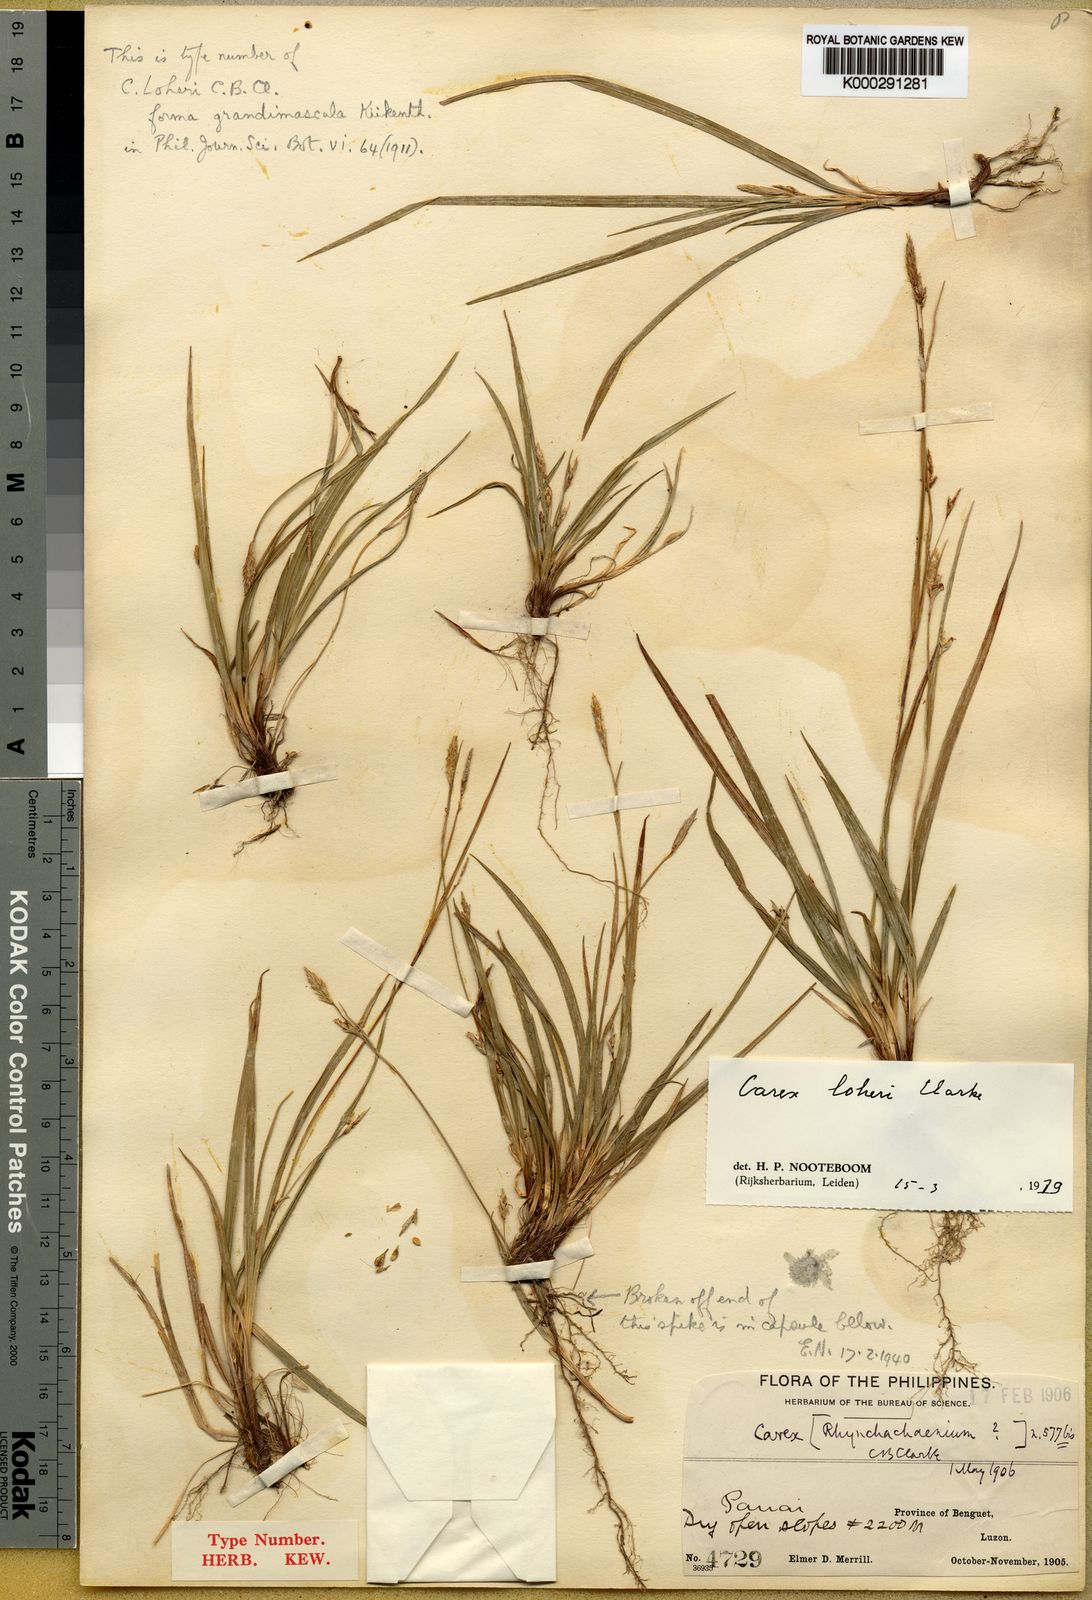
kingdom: Plantae
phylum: Tracheophyta
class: Liliopsida
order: Poales
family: Cyperaceae
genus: Carex
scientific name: Carex oxyphylla
